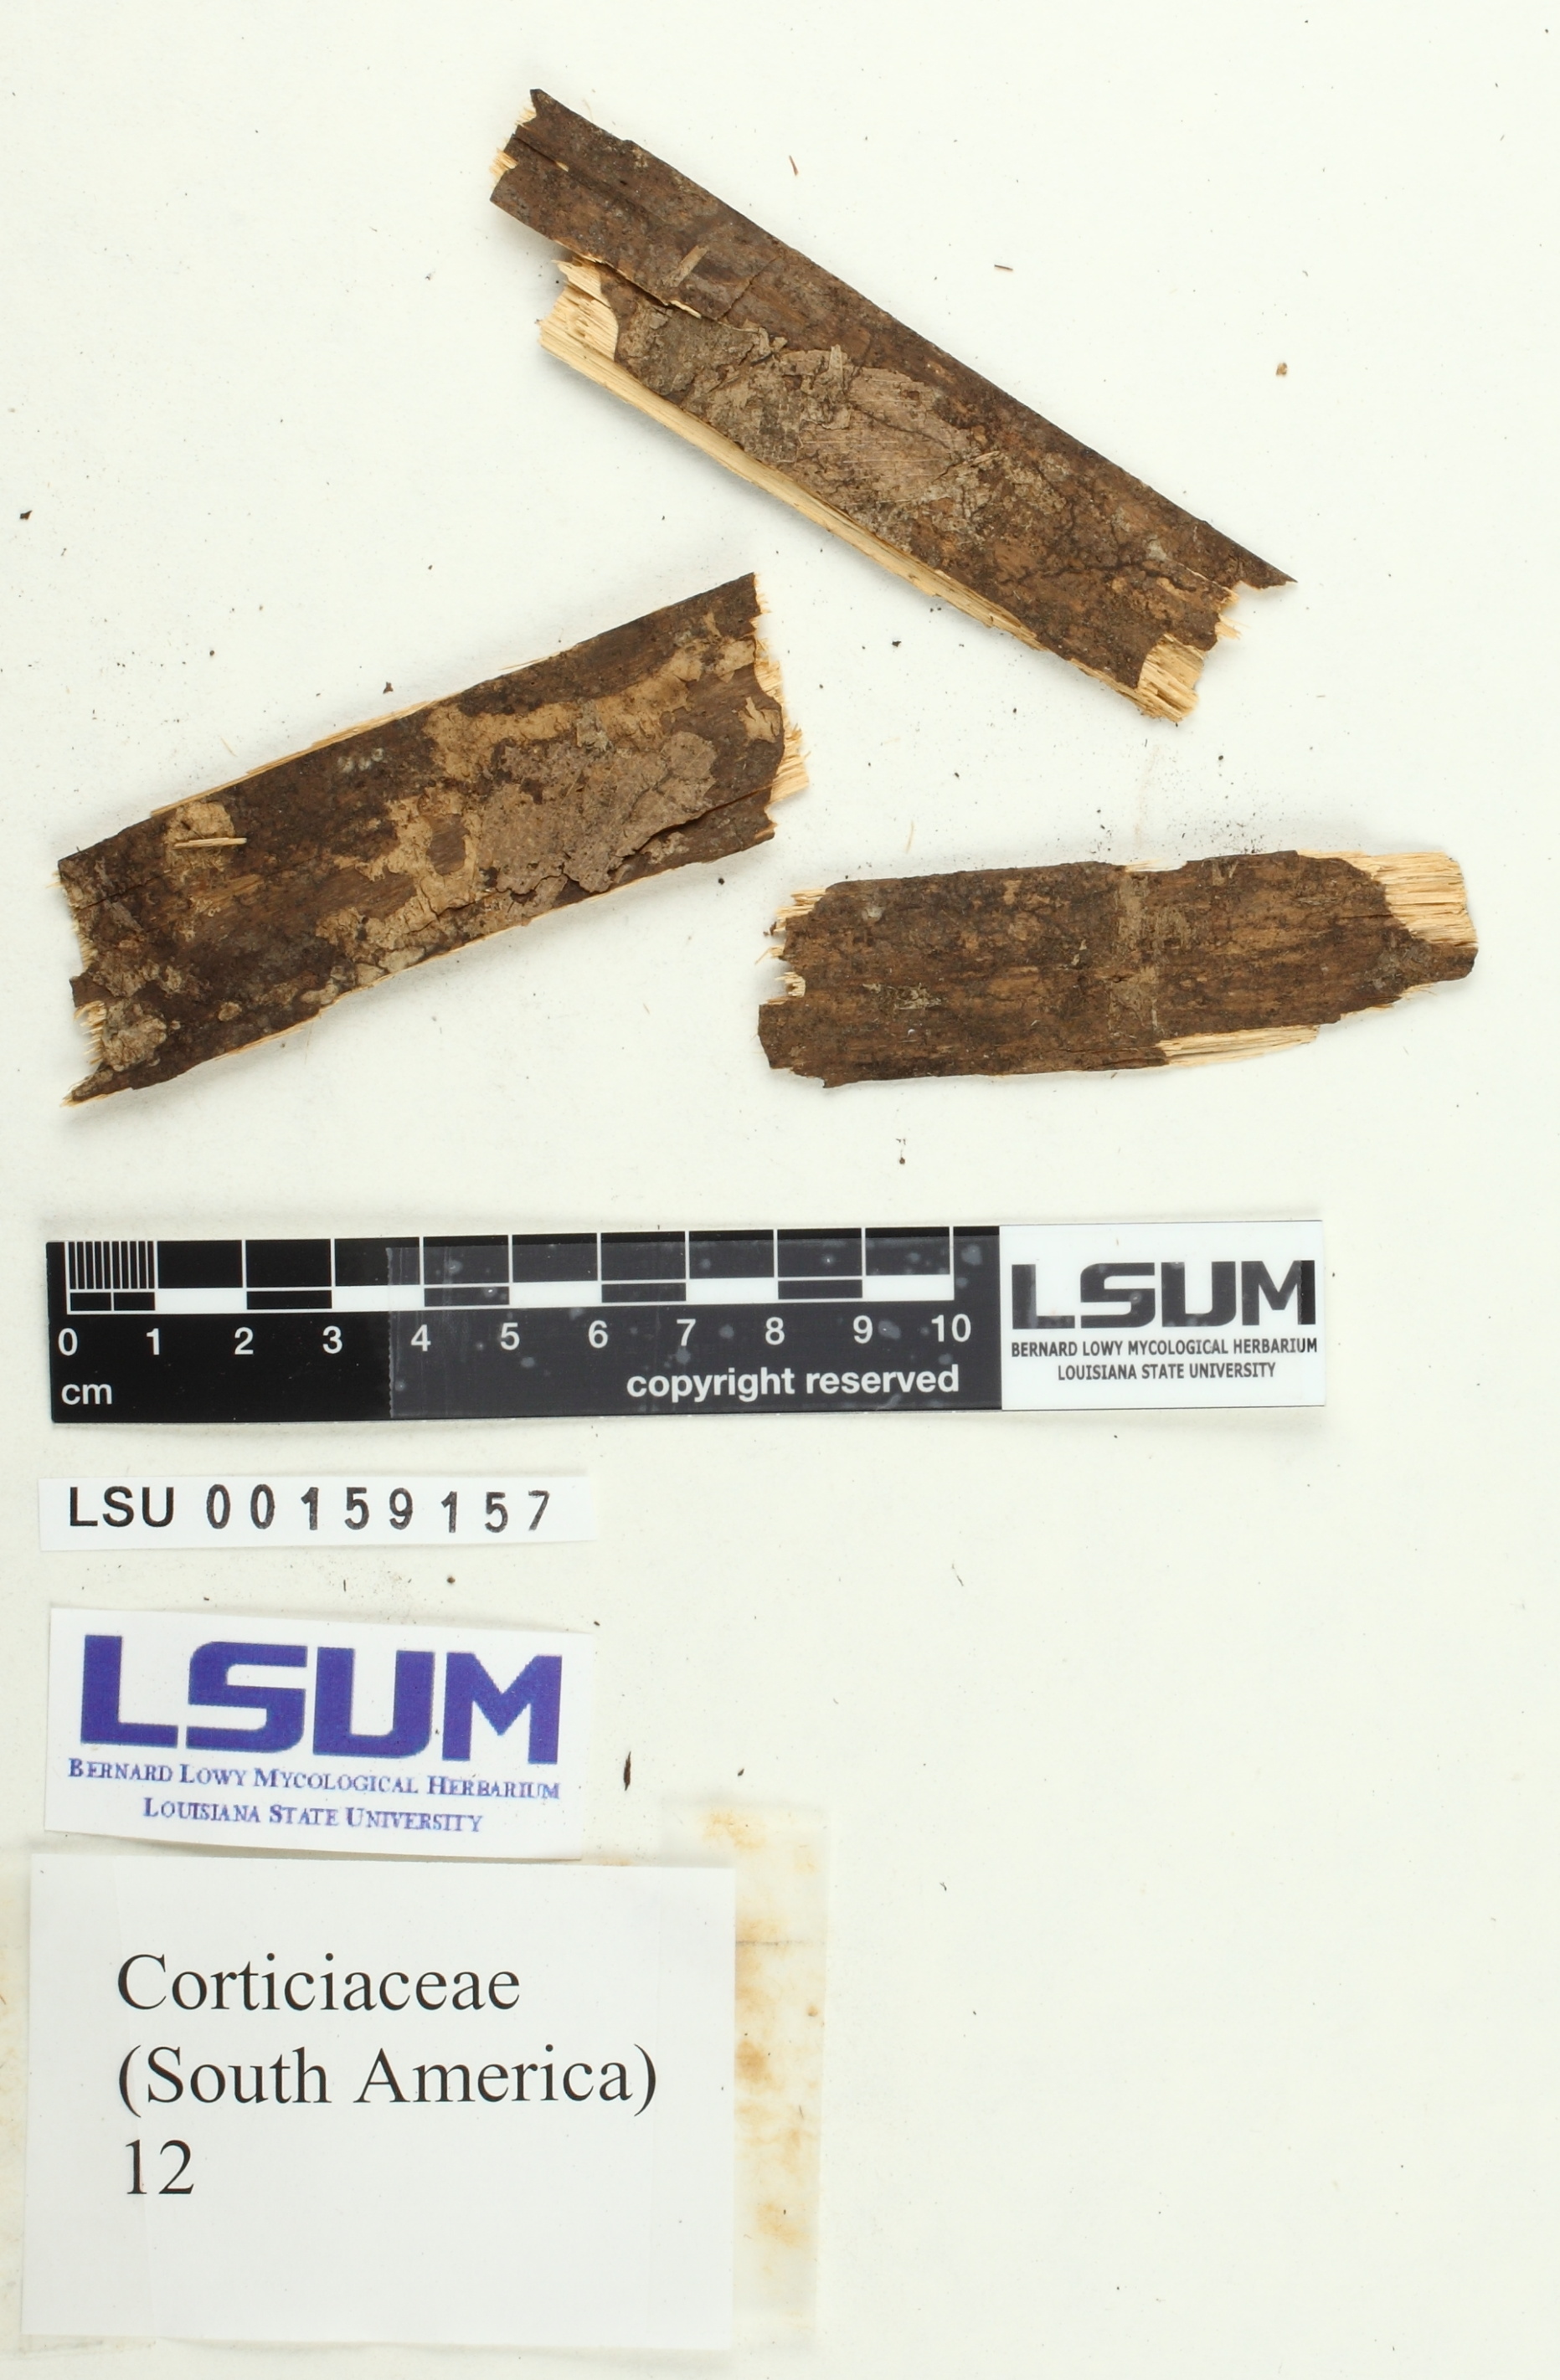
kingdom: Fungi
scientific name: Fungi
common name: Fungi
